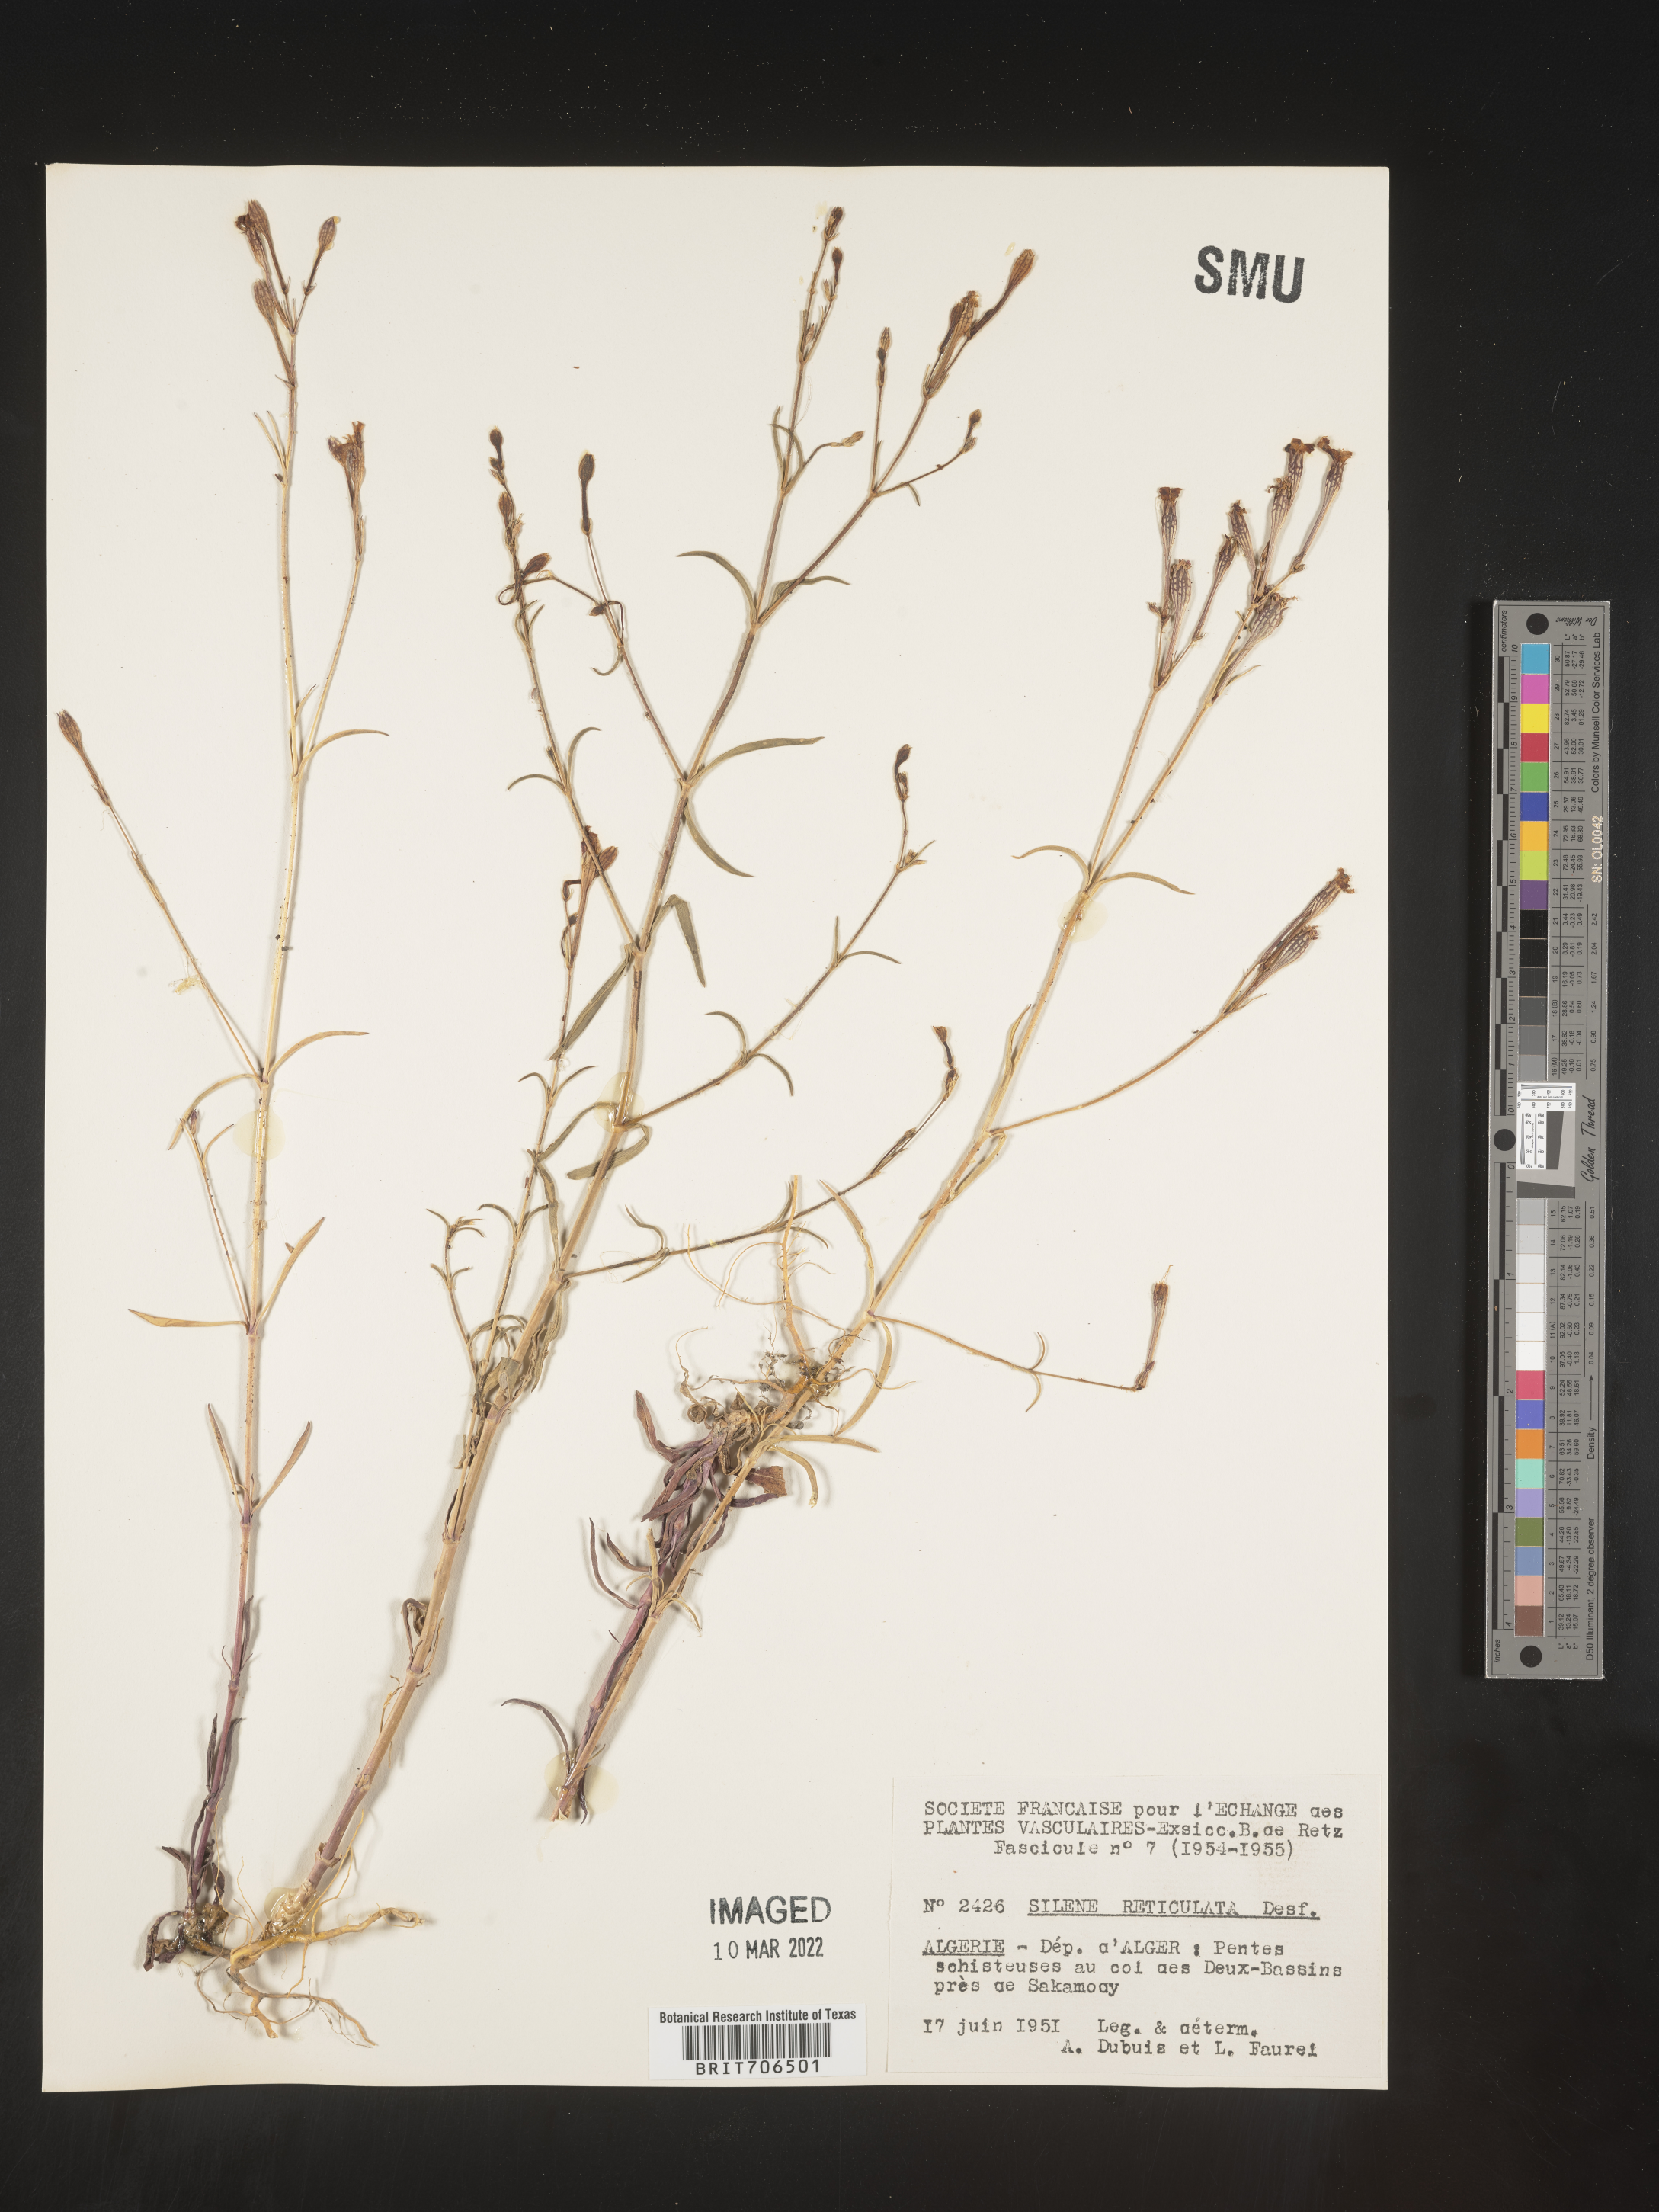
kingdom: Plantae
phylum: Tracheophyta
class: Magnoliopsida
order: Caryophyllales
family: Caryophyllaceae
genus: Silene
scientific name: Silene
